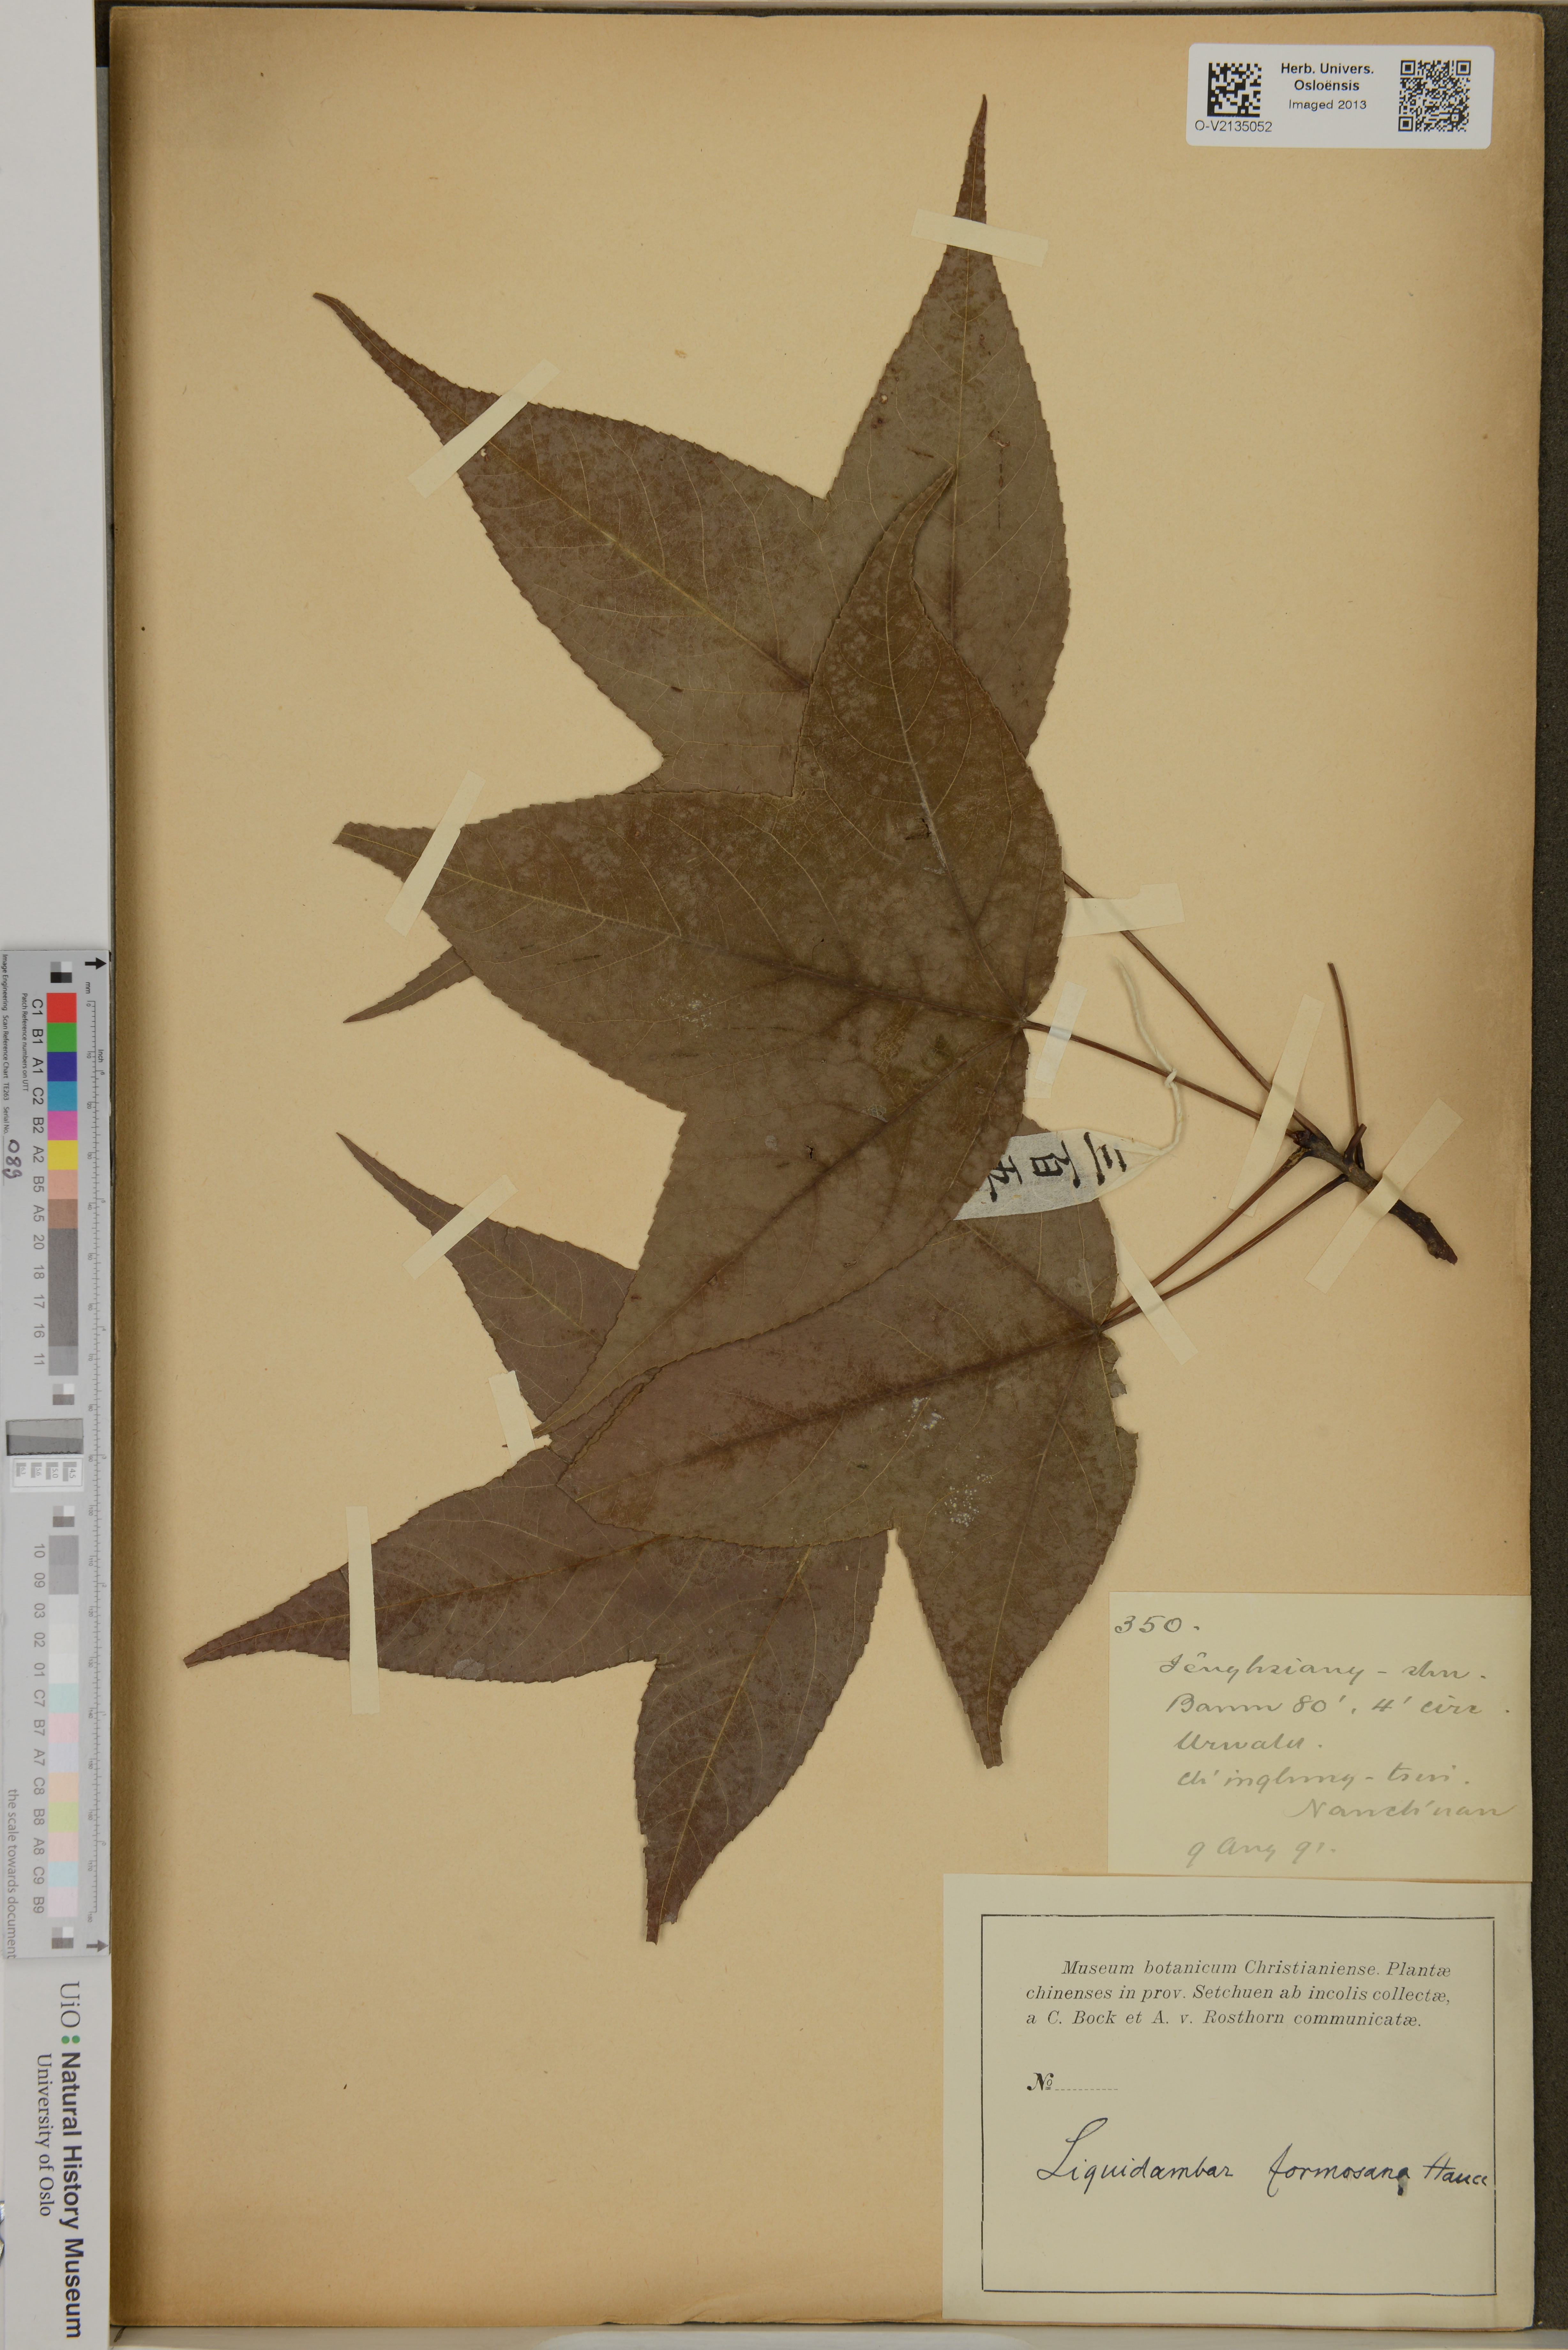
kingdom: Plantae
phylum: Tracheophyta
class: Magnoliopsida
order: Saxifragales
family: Altingiaceae
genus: Liquidambar
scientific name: Liquidambar formosana
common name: Chinese sweet gum
